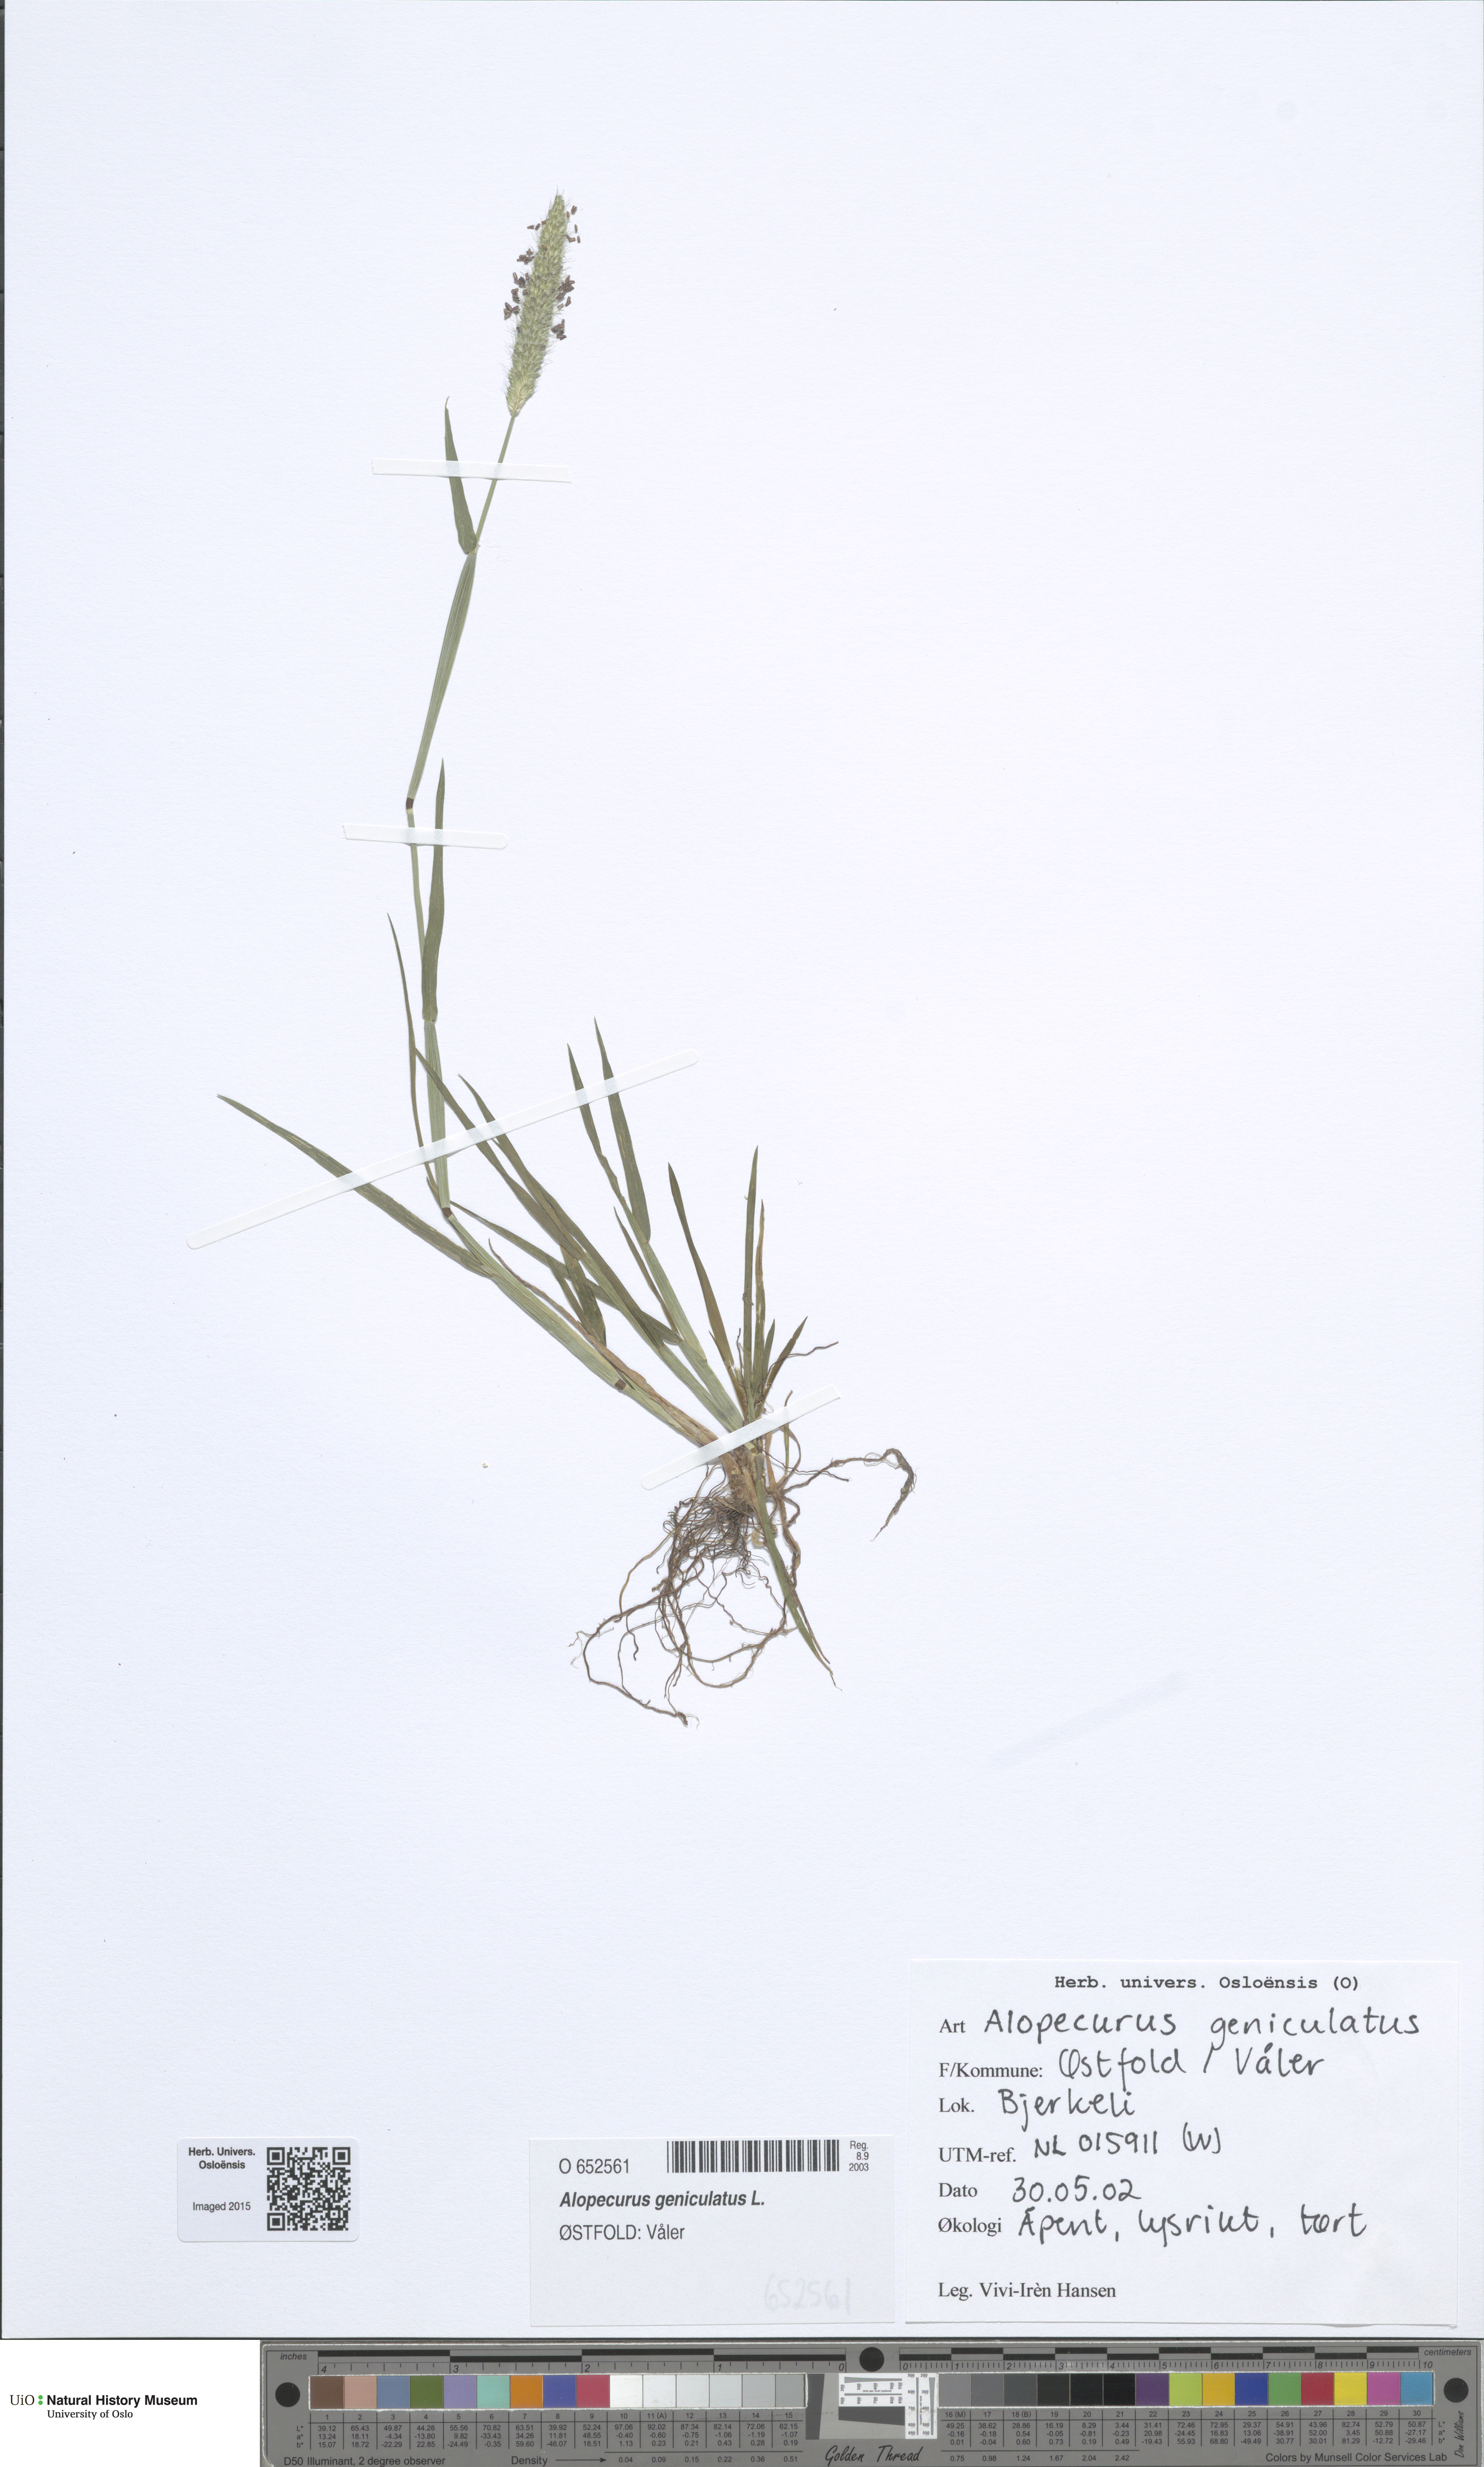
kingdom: Plantae
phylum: Tracheophyta
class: Liliopsida
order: Poales
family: Poaceae
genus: Alopecurus
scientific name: Alopecurus geniculatus
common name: Water foxtail
